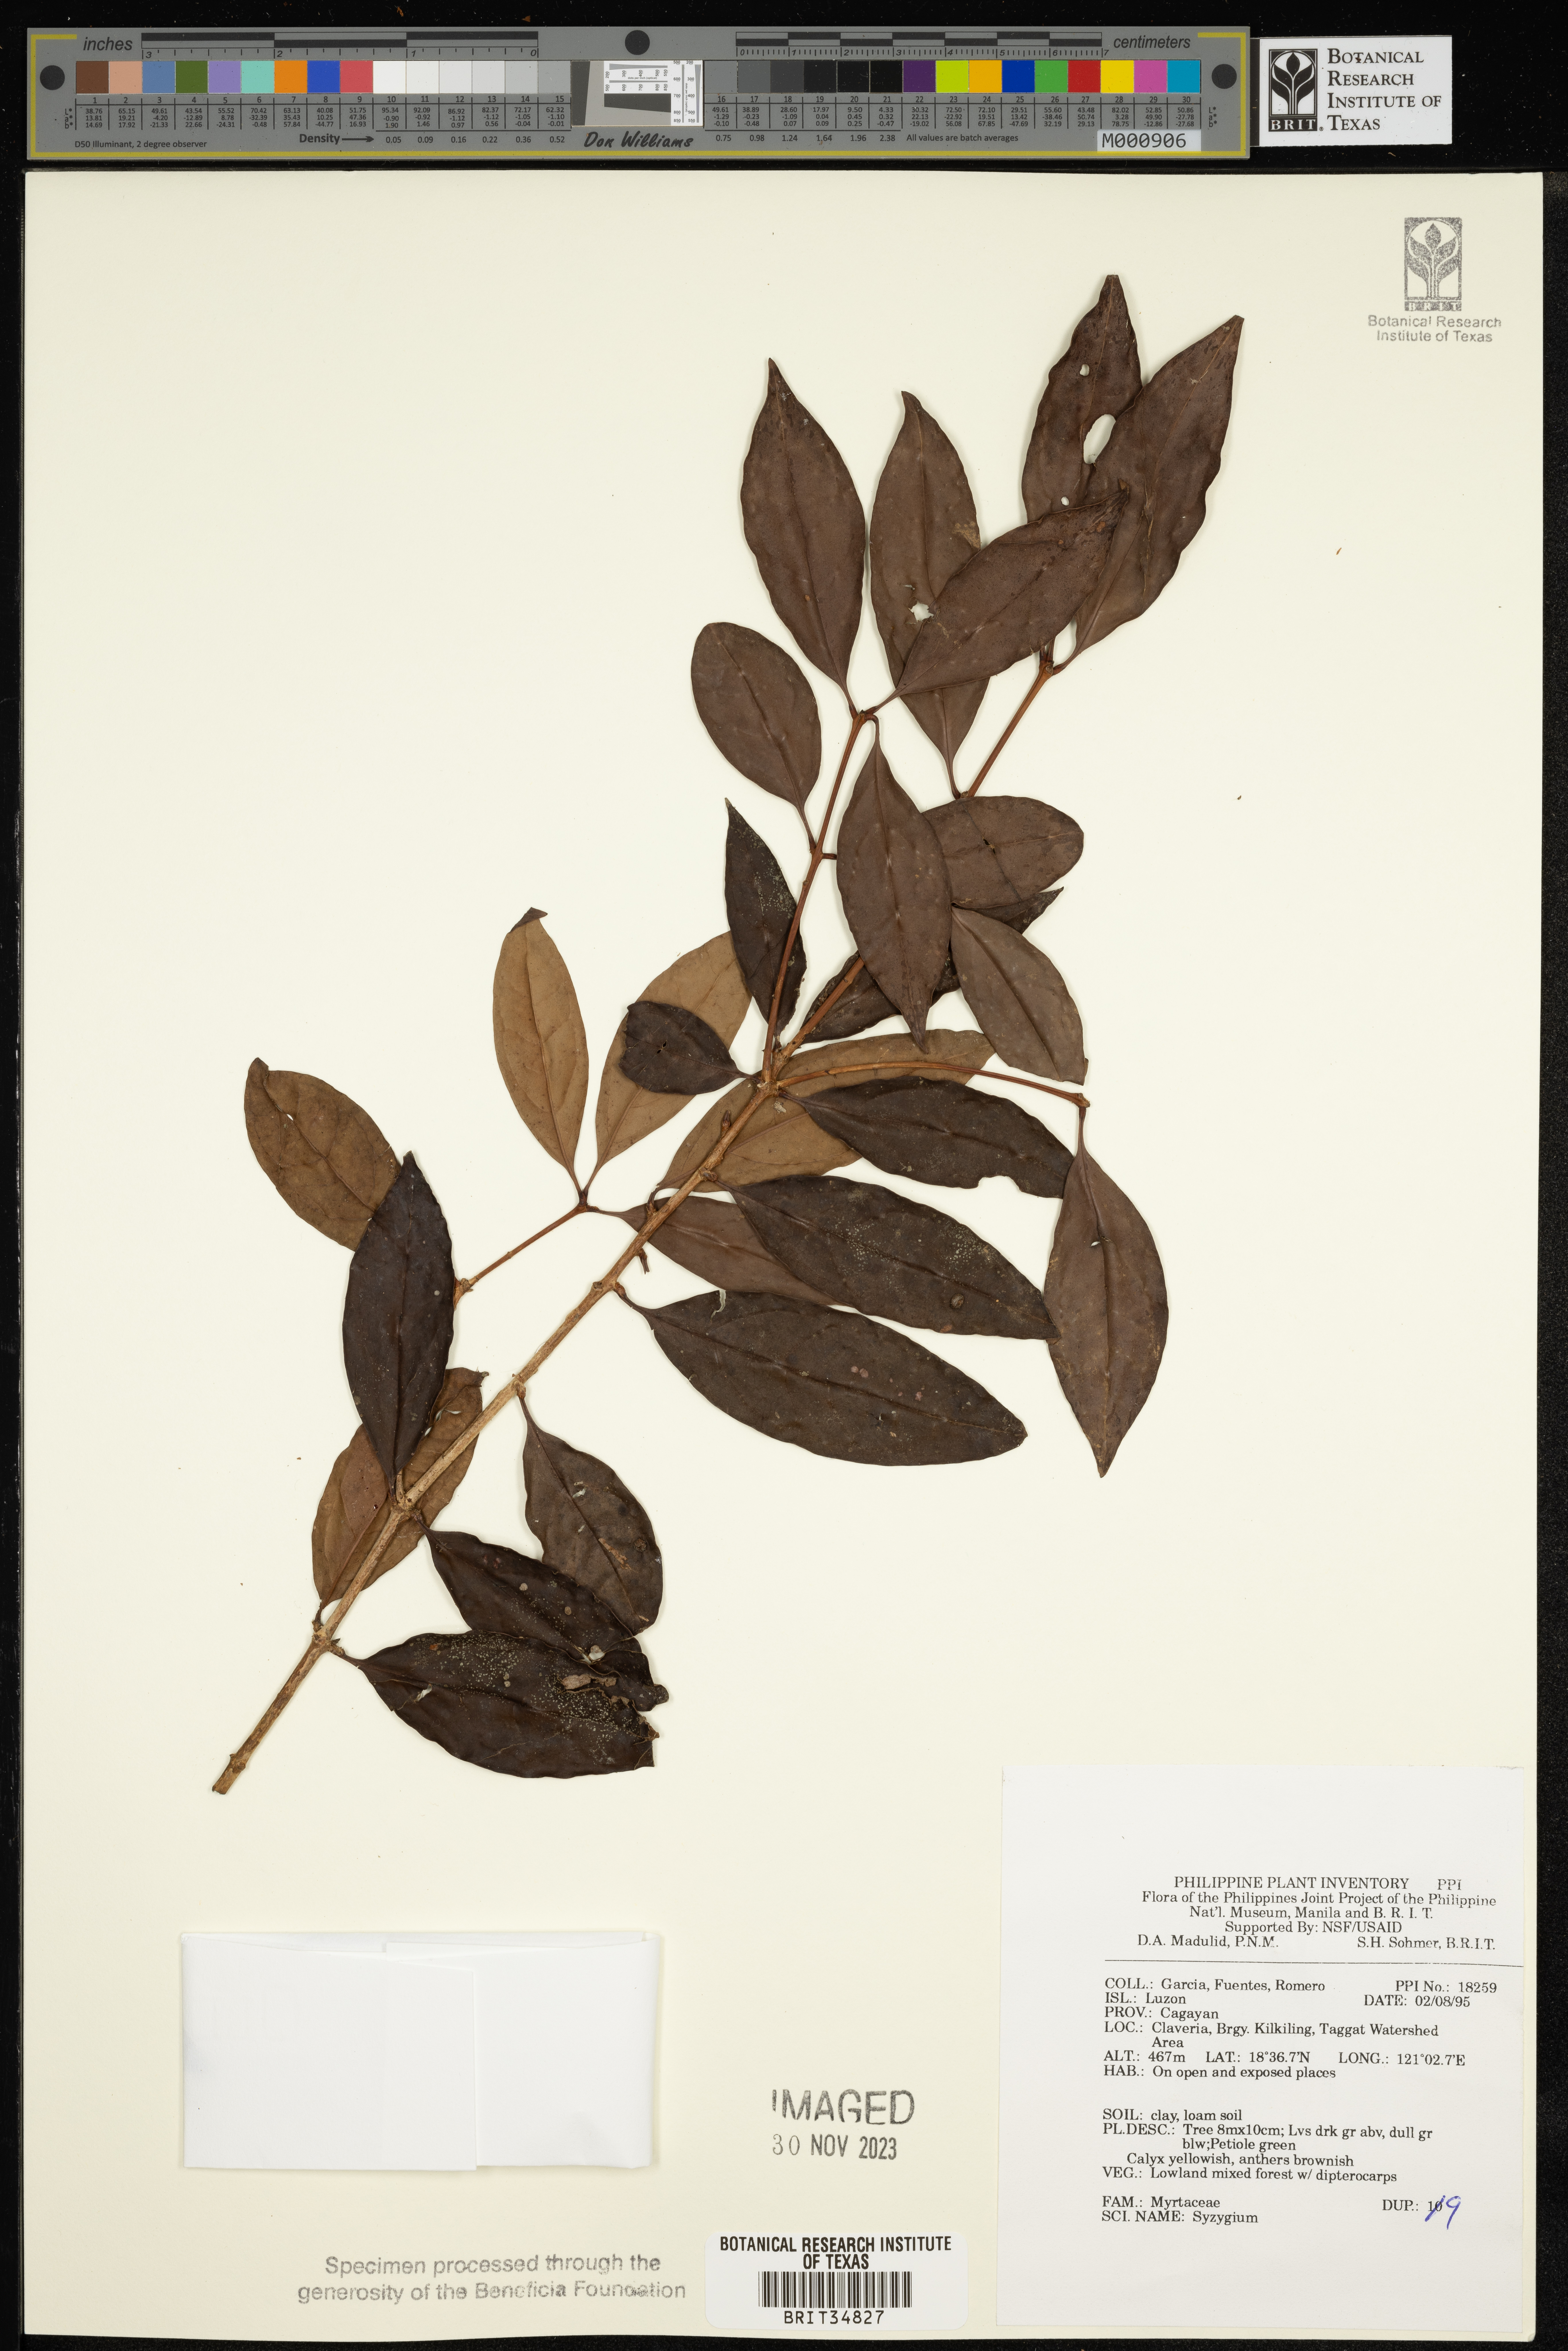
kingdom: Plantae
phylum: Tracheophyta
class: Magnoliopsida
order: Myrtales
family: Myrtaceae
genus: Syzygium
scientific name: Syzygium
